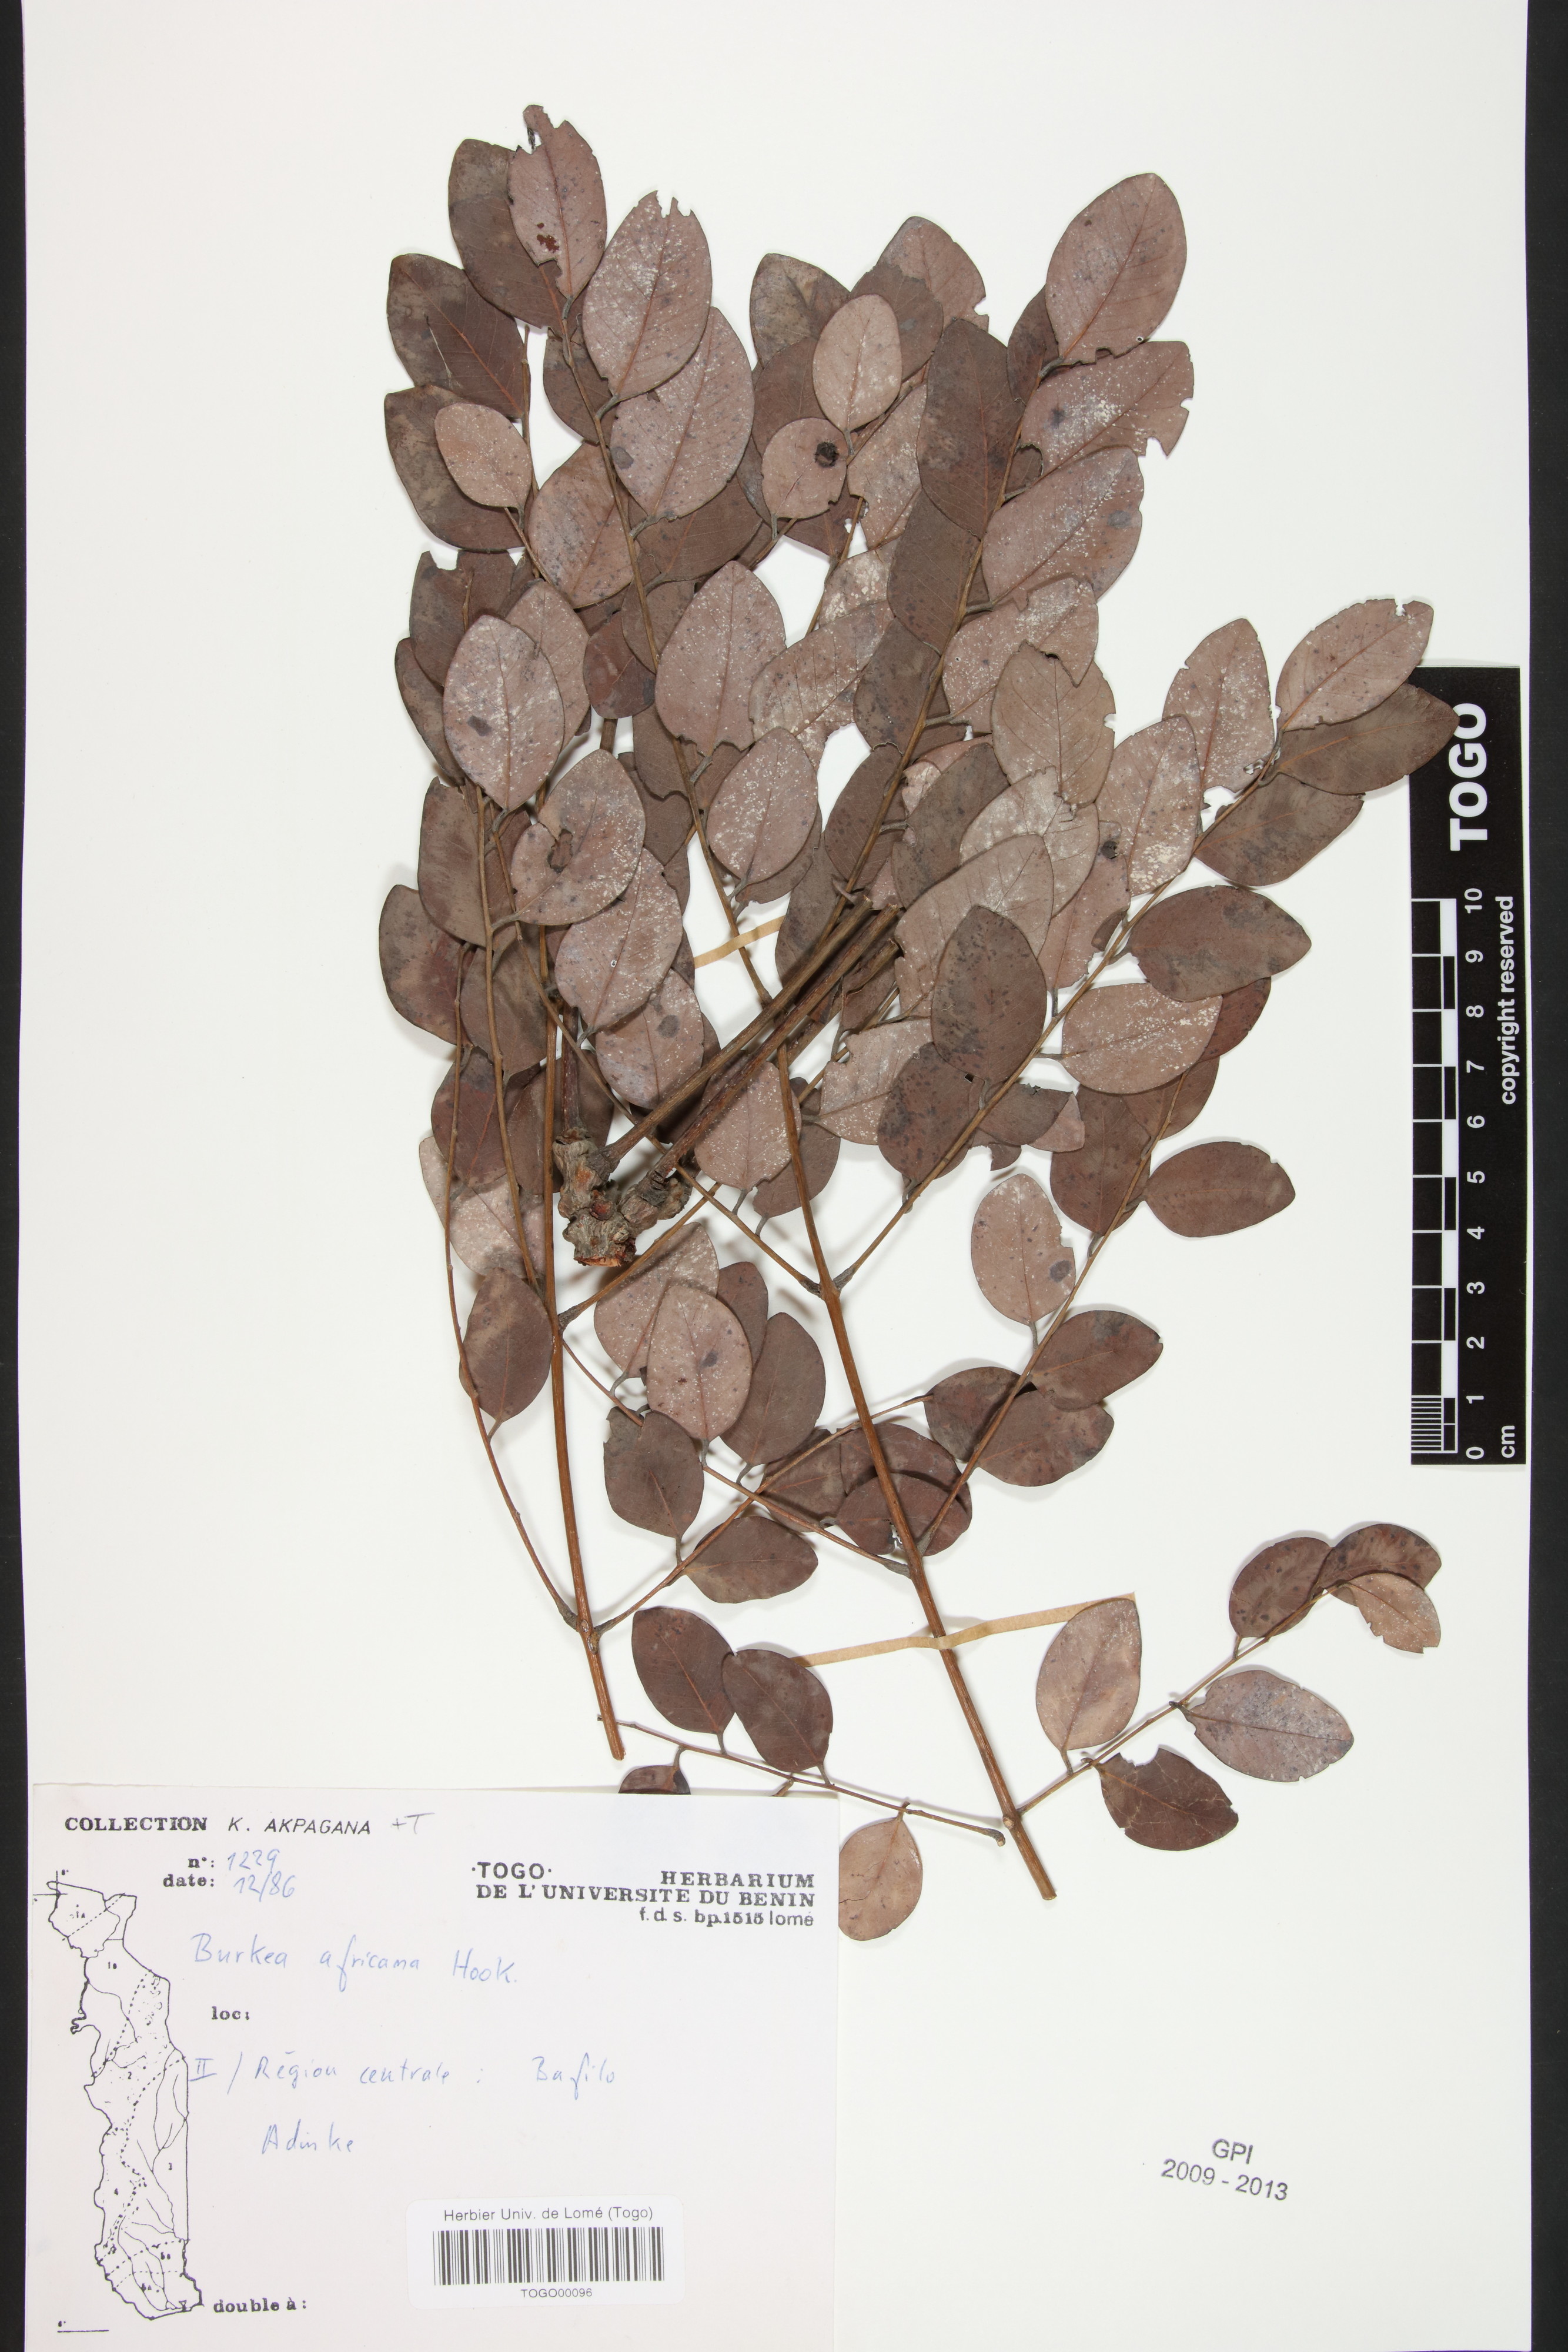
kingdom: Plantae
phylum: Tracheophyta
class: Magnoliopsida
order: Fabales
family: Fabaceae
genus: Burkea
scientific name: Burkea africana
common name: Mkalati tree
